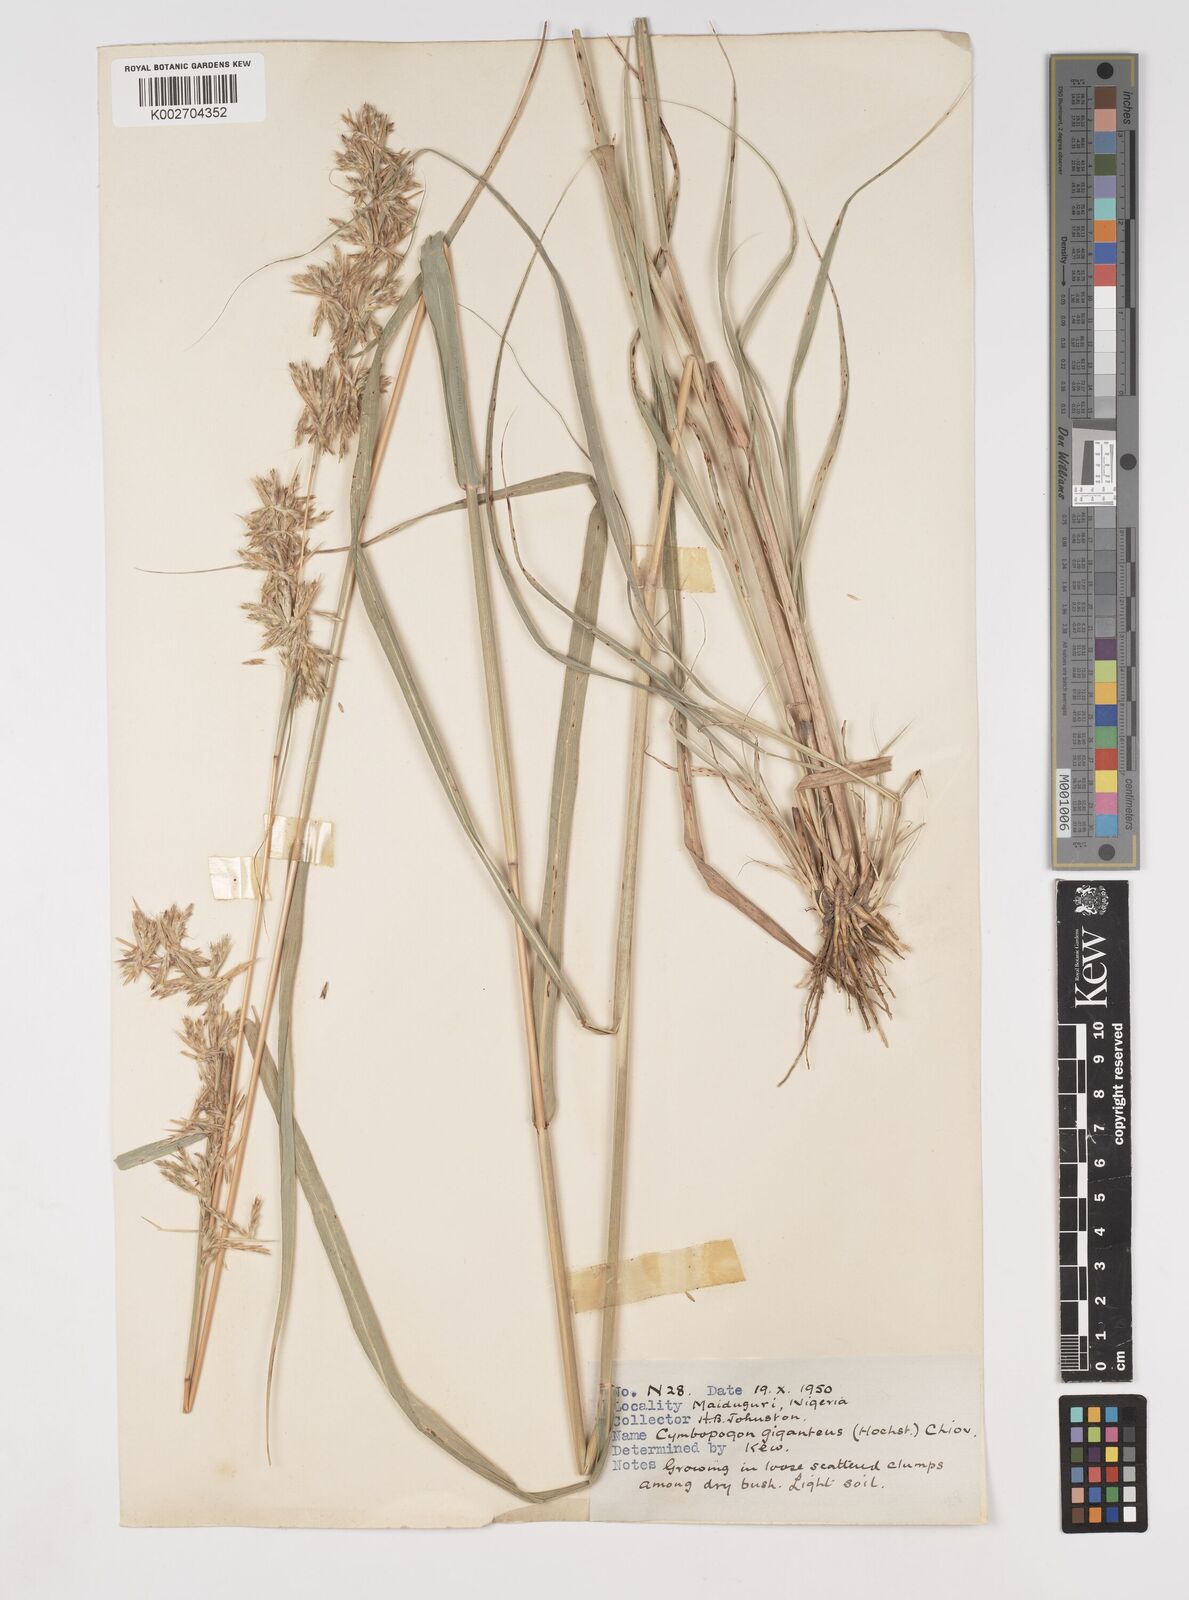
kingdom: Plantae
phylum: Tracheophyta
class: Liliopsida
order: Poales
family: Poaceae
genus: Cymbopogon
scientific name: Cymbopogon giganteus
